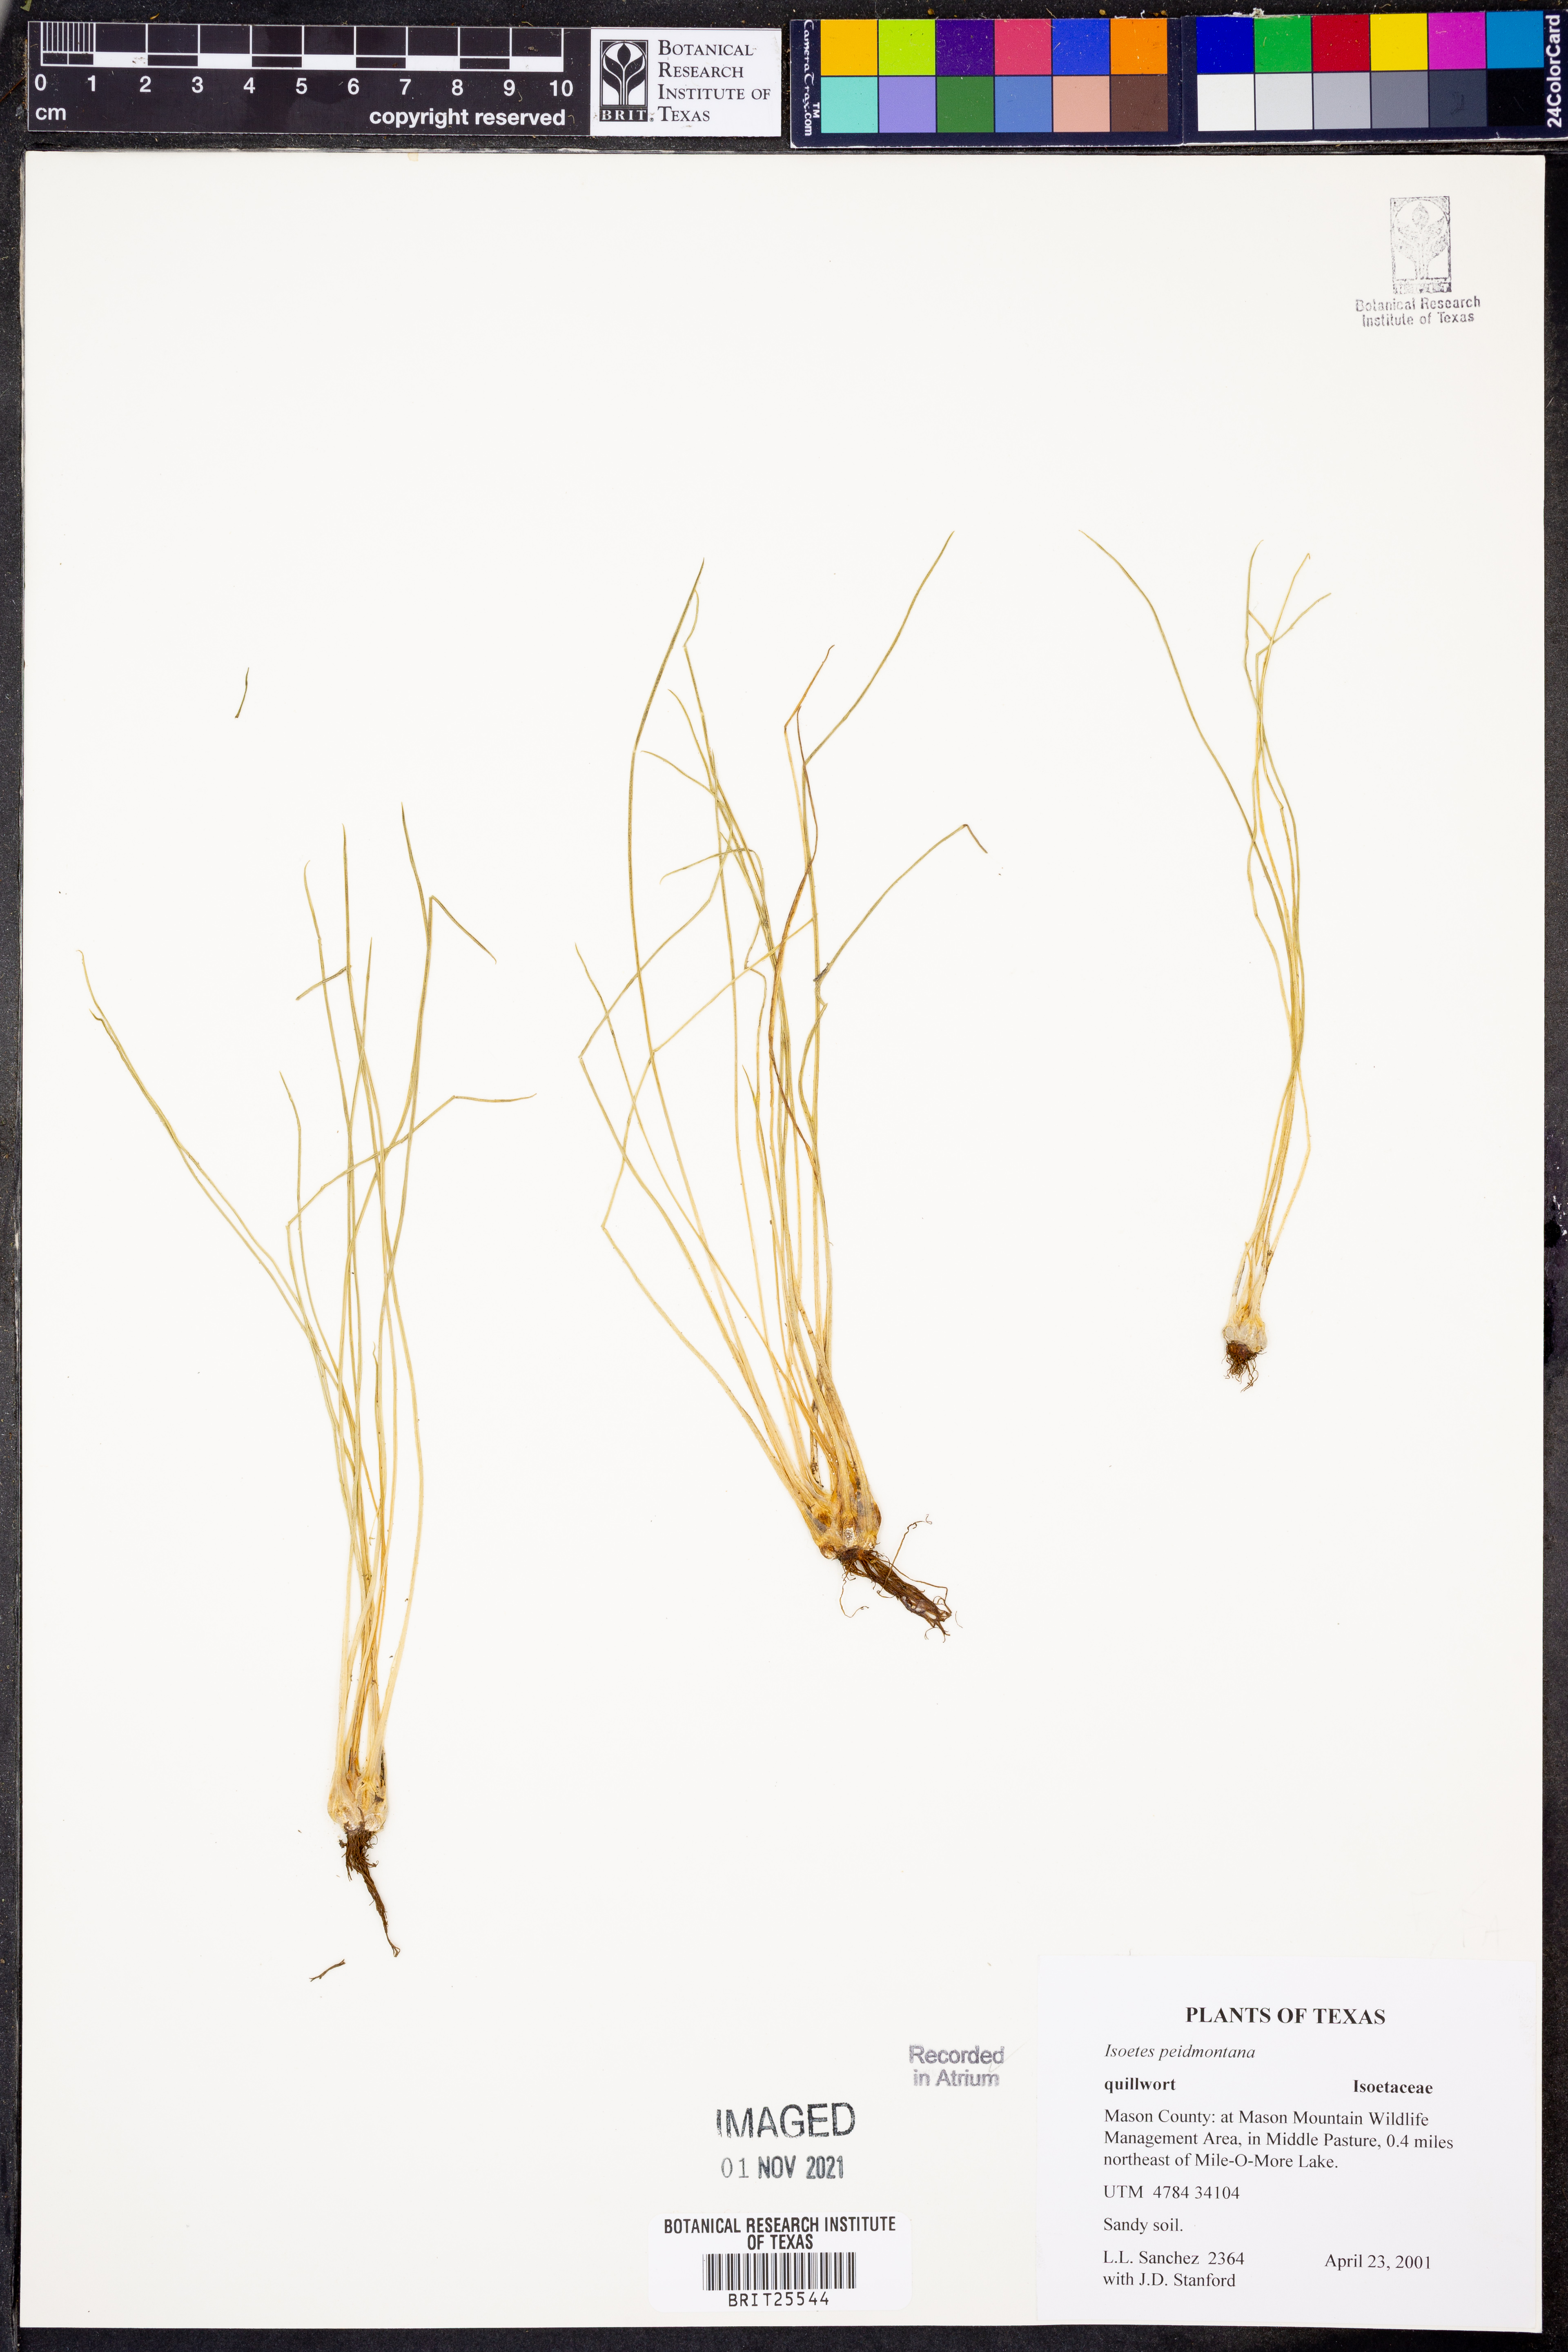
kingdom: Plantae
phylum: Tracheophyta
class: Lycopodiopsida
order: Isoetales
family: Isoetaceae
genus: Isoetes
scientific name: Isoetes virginica
